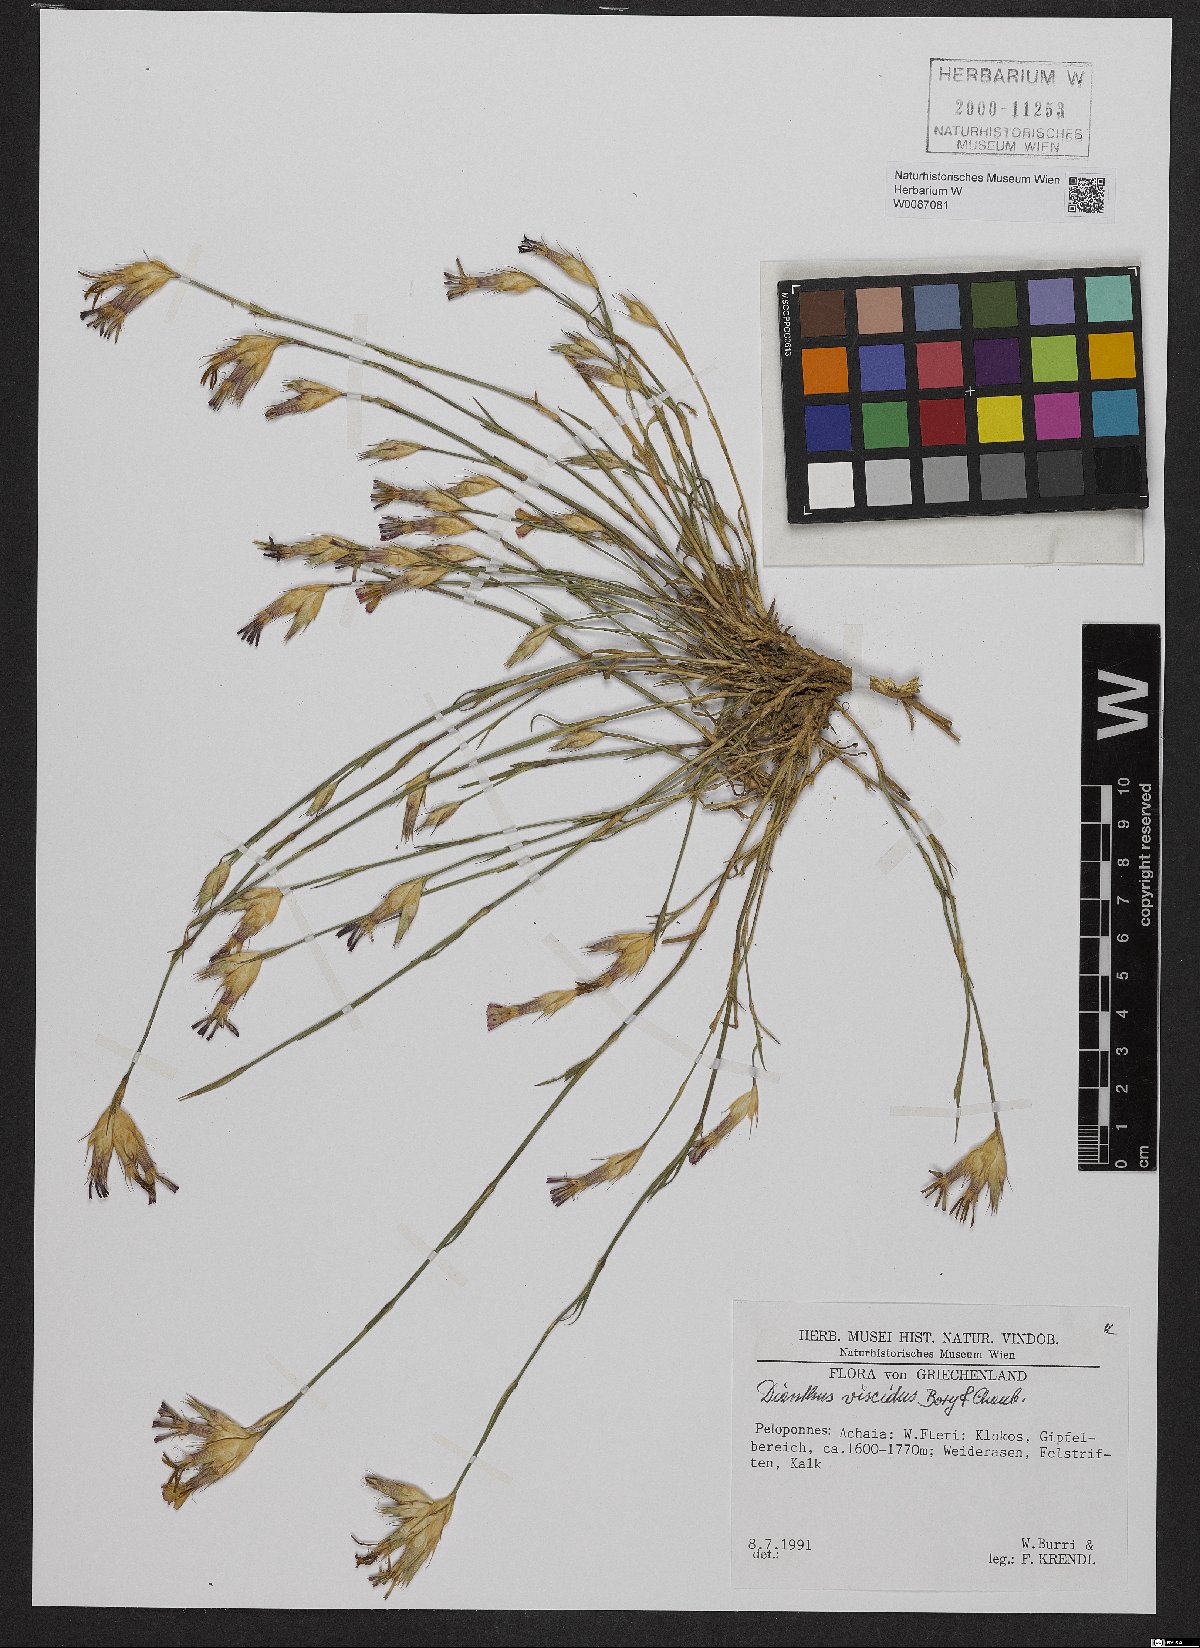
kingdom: Plantae
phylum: Tracheophyta
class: Magnoliopsida
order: Caryophyllales
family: Caryophyllaceae
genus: Dianthus
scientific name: Dianthus viscidus
